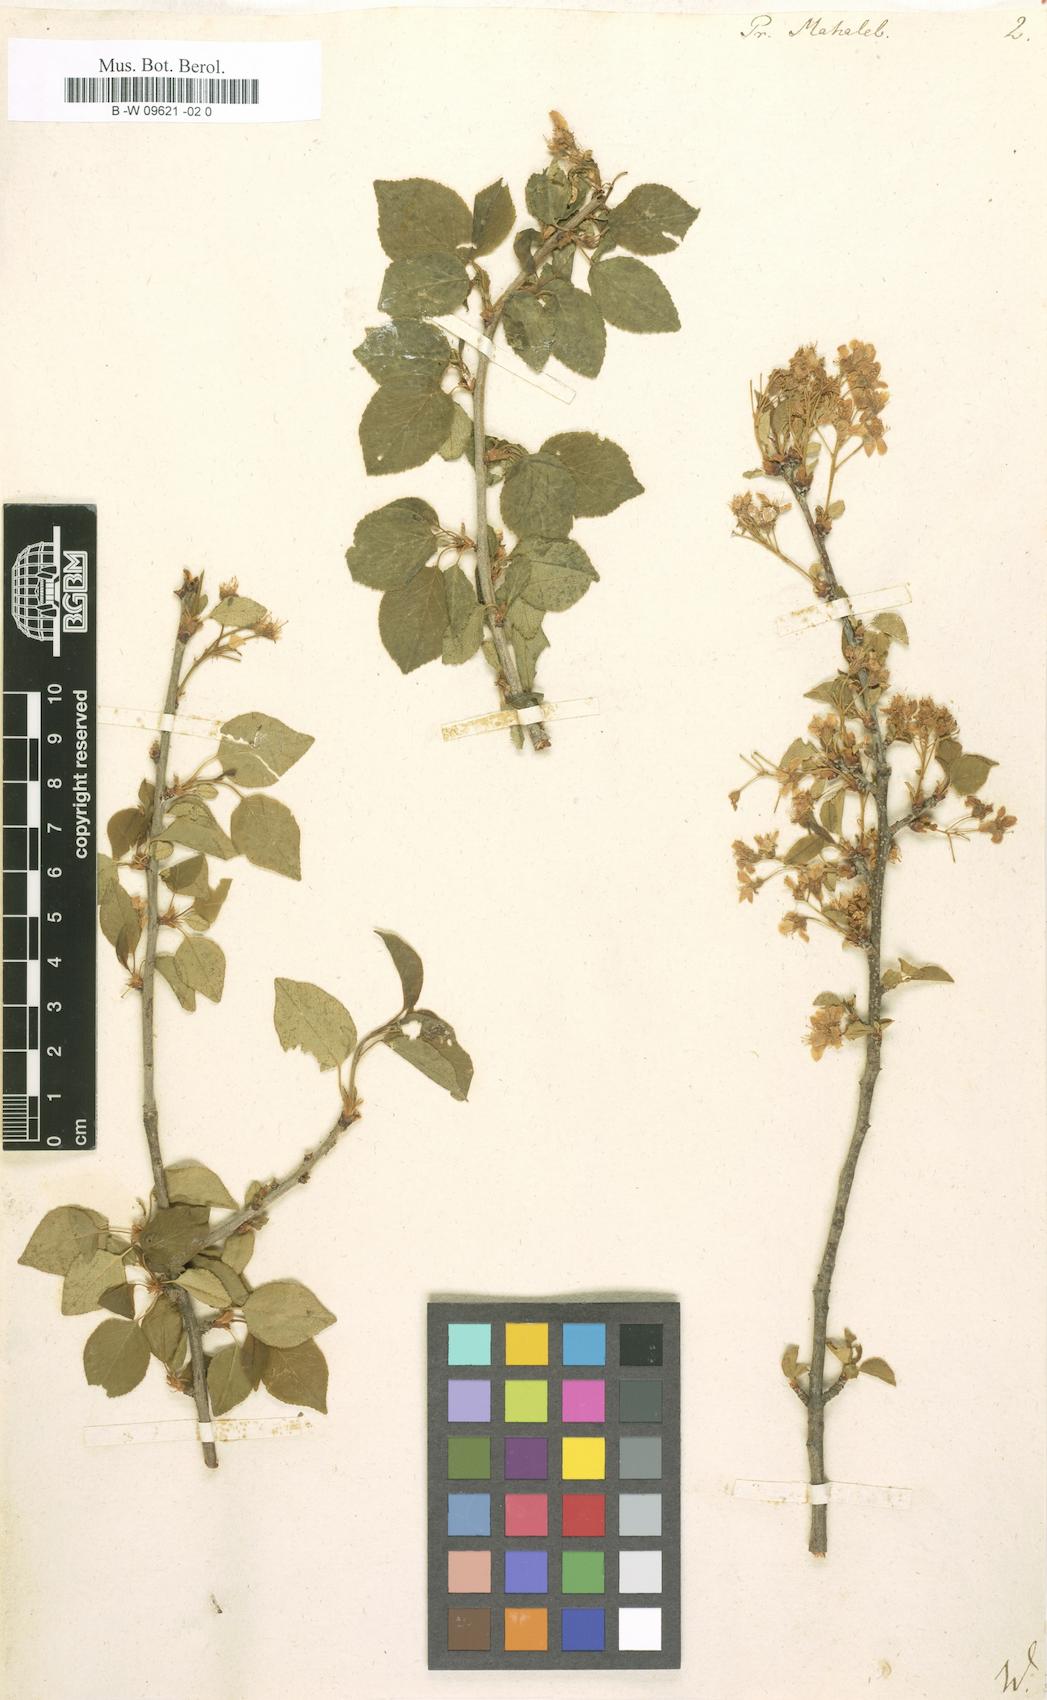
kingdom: Plantae
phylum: Tracheophyta
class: Magnoliopsida
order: Rosales
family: Rosaceae
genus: Prunus
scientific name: Prunus mahaleb
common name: Mahaleb cherry
